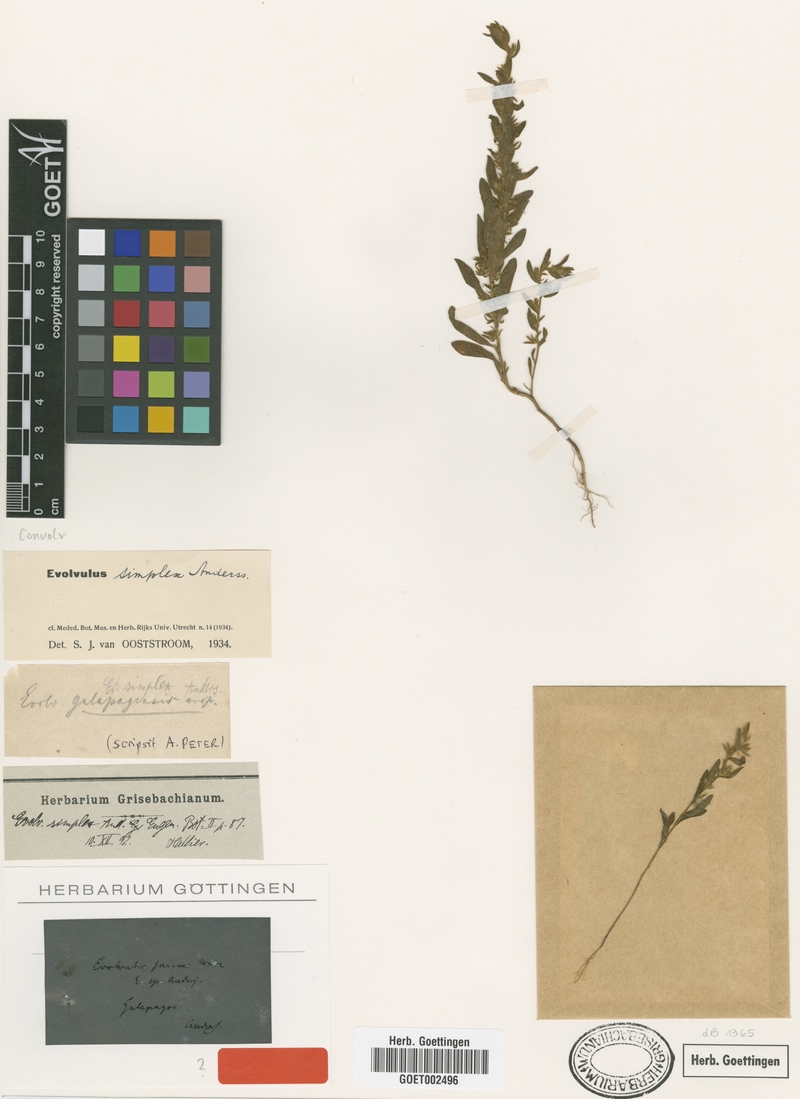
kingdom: Plantae
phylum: Tracheophyta
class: Magnoliopsida
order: Solanales
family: Convolvulaceae
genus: Evolvulus
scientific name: Evolvulus simplex
